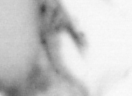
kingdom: Animalia
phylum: Arthropoda
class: Copepoda
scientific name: Copepoda
